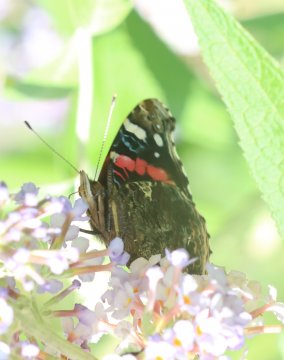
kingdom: Animalia
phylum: Arthropoda
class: Insecta
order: Lepidoptera
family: Nymphalidae
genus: Vanessa
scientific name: Vanessa atalanta
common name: Red Admiral
